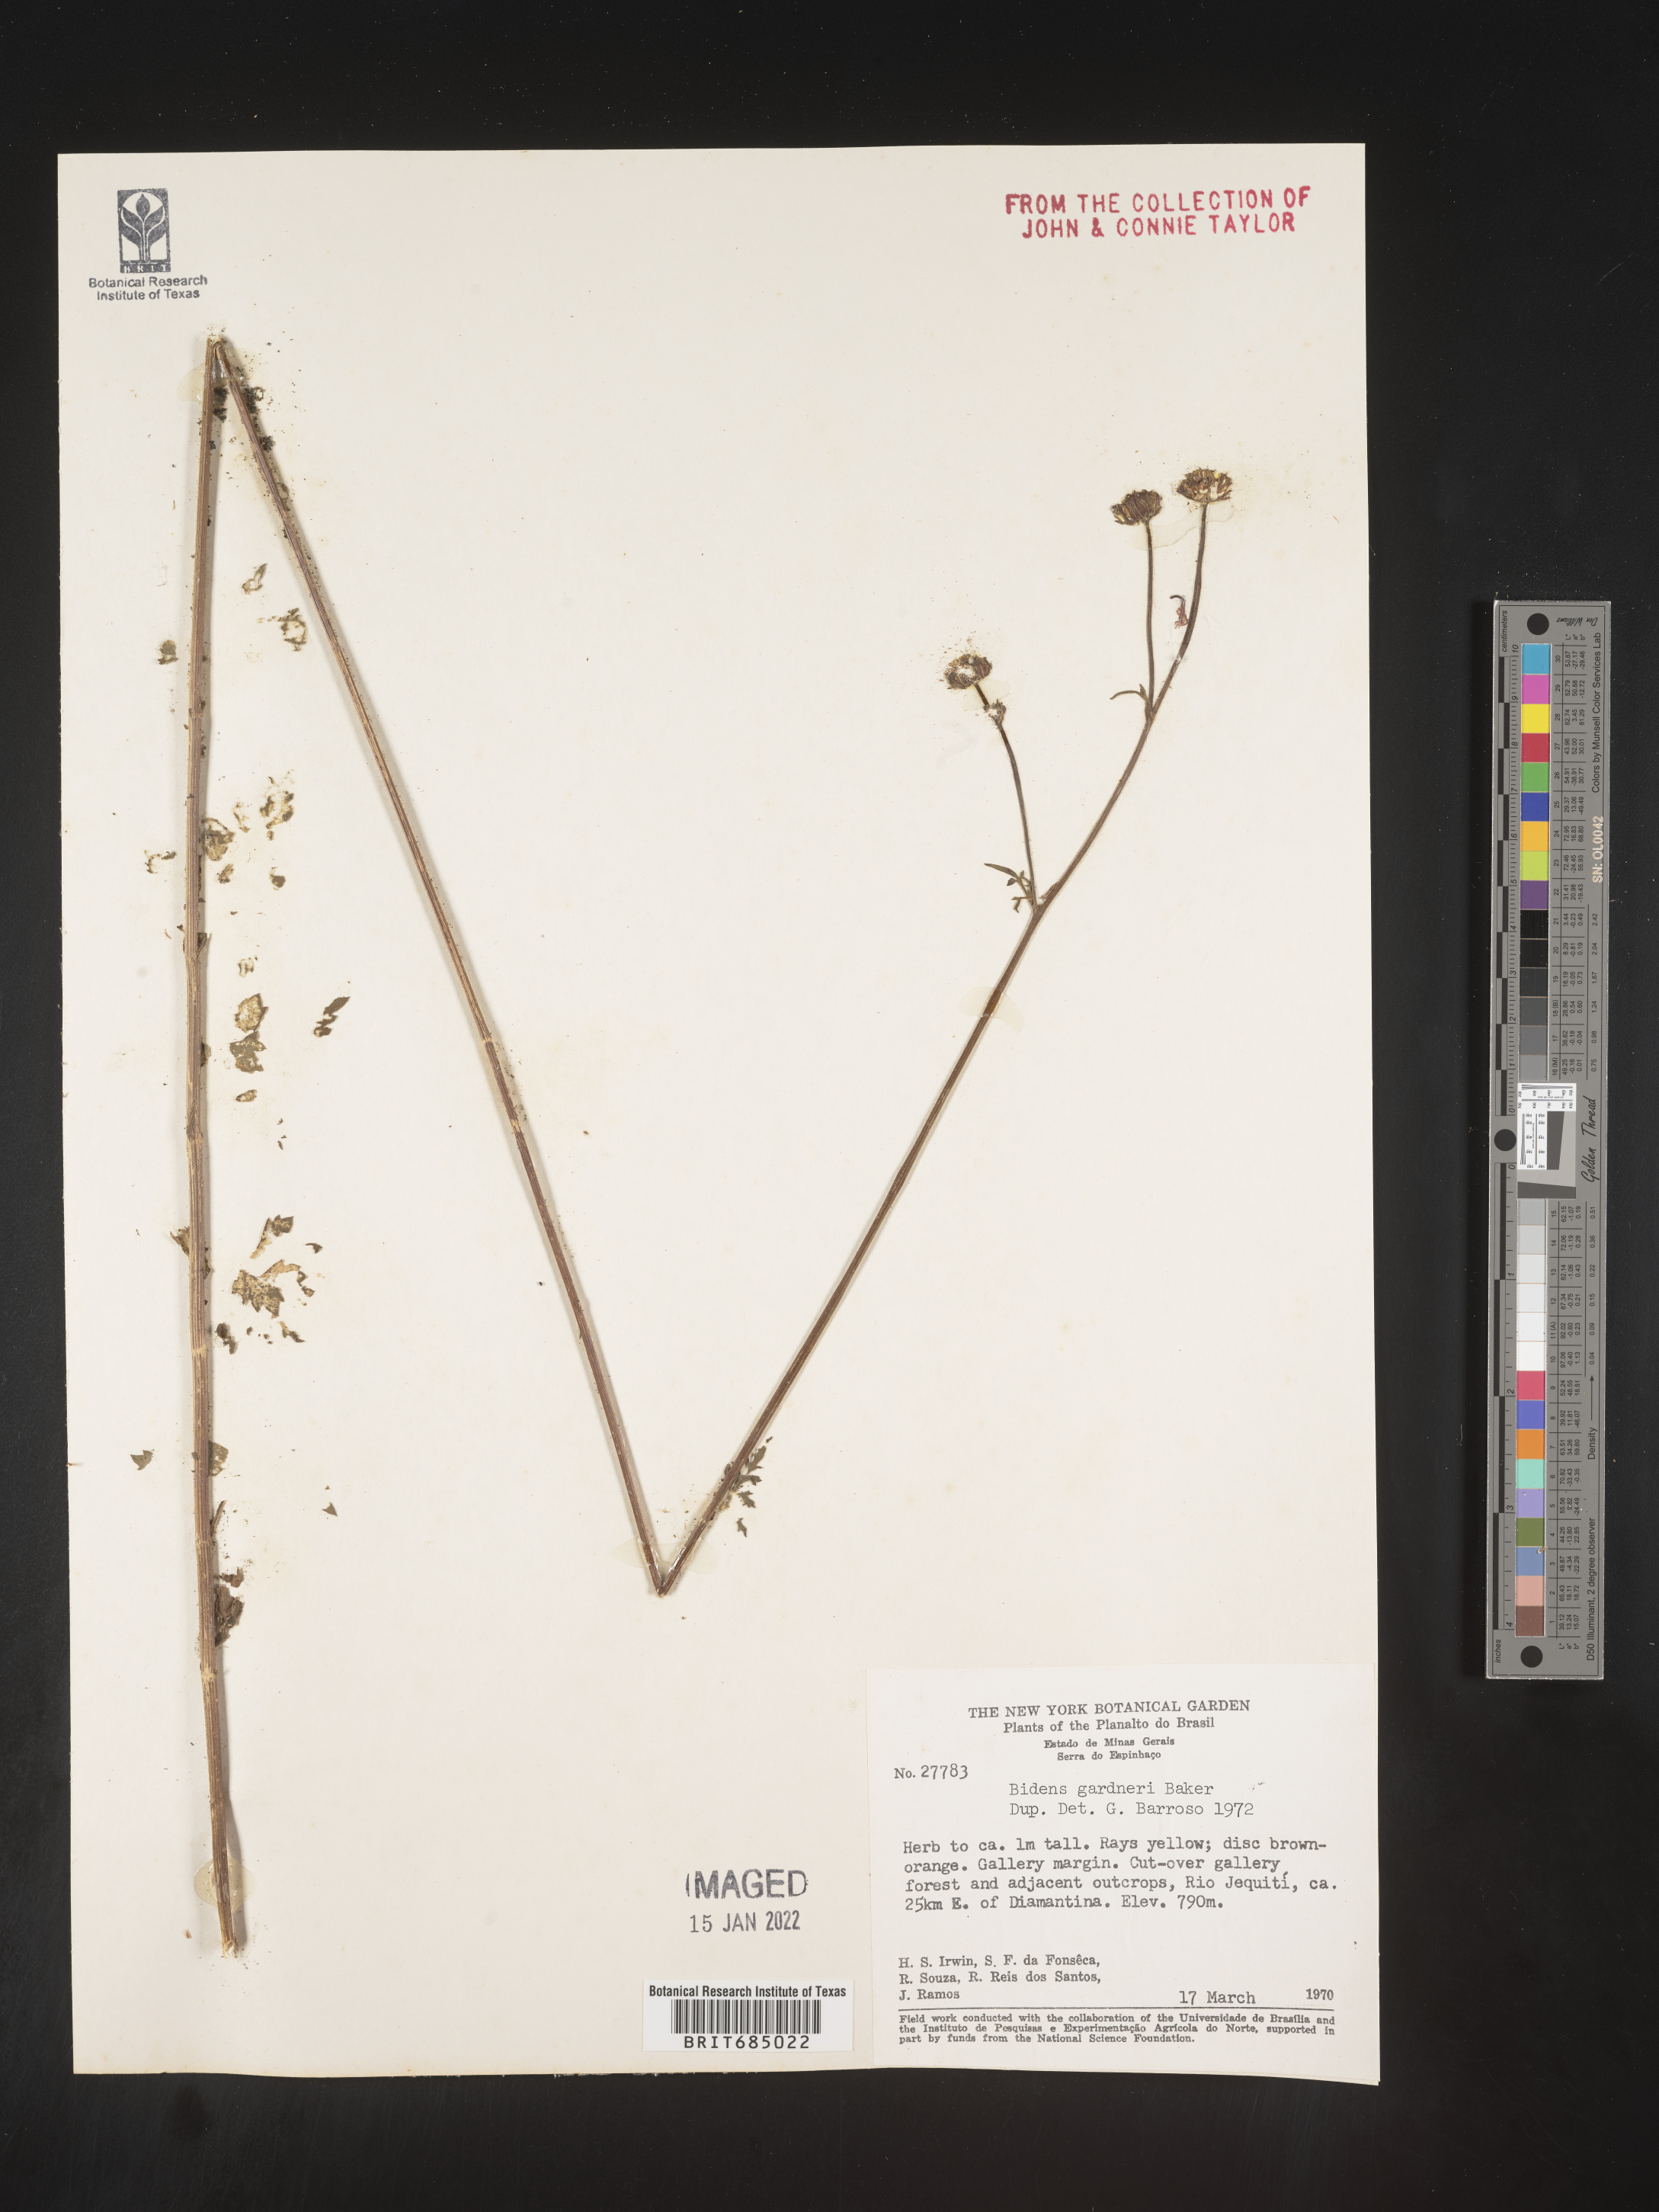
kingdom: Plantae
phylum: Tracheophyta
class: Magnoliopsida
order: Asterales
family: Asteraceae
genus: Bidens
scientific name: Bidens
